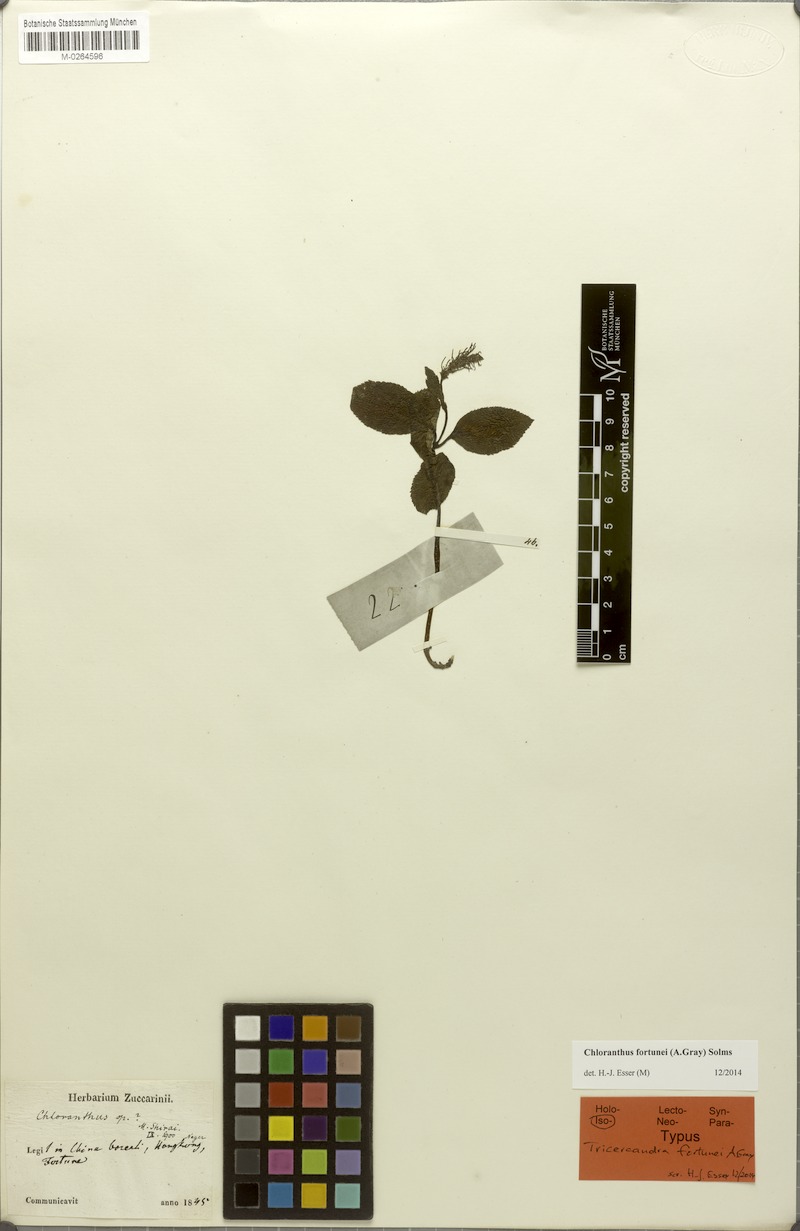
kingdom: Plantae
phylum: Tracheophyta
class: Magnoliopsida
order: Chloranthales
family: Chloranthaceae
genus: Chloranthus
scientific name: Chloranthus fortunei
